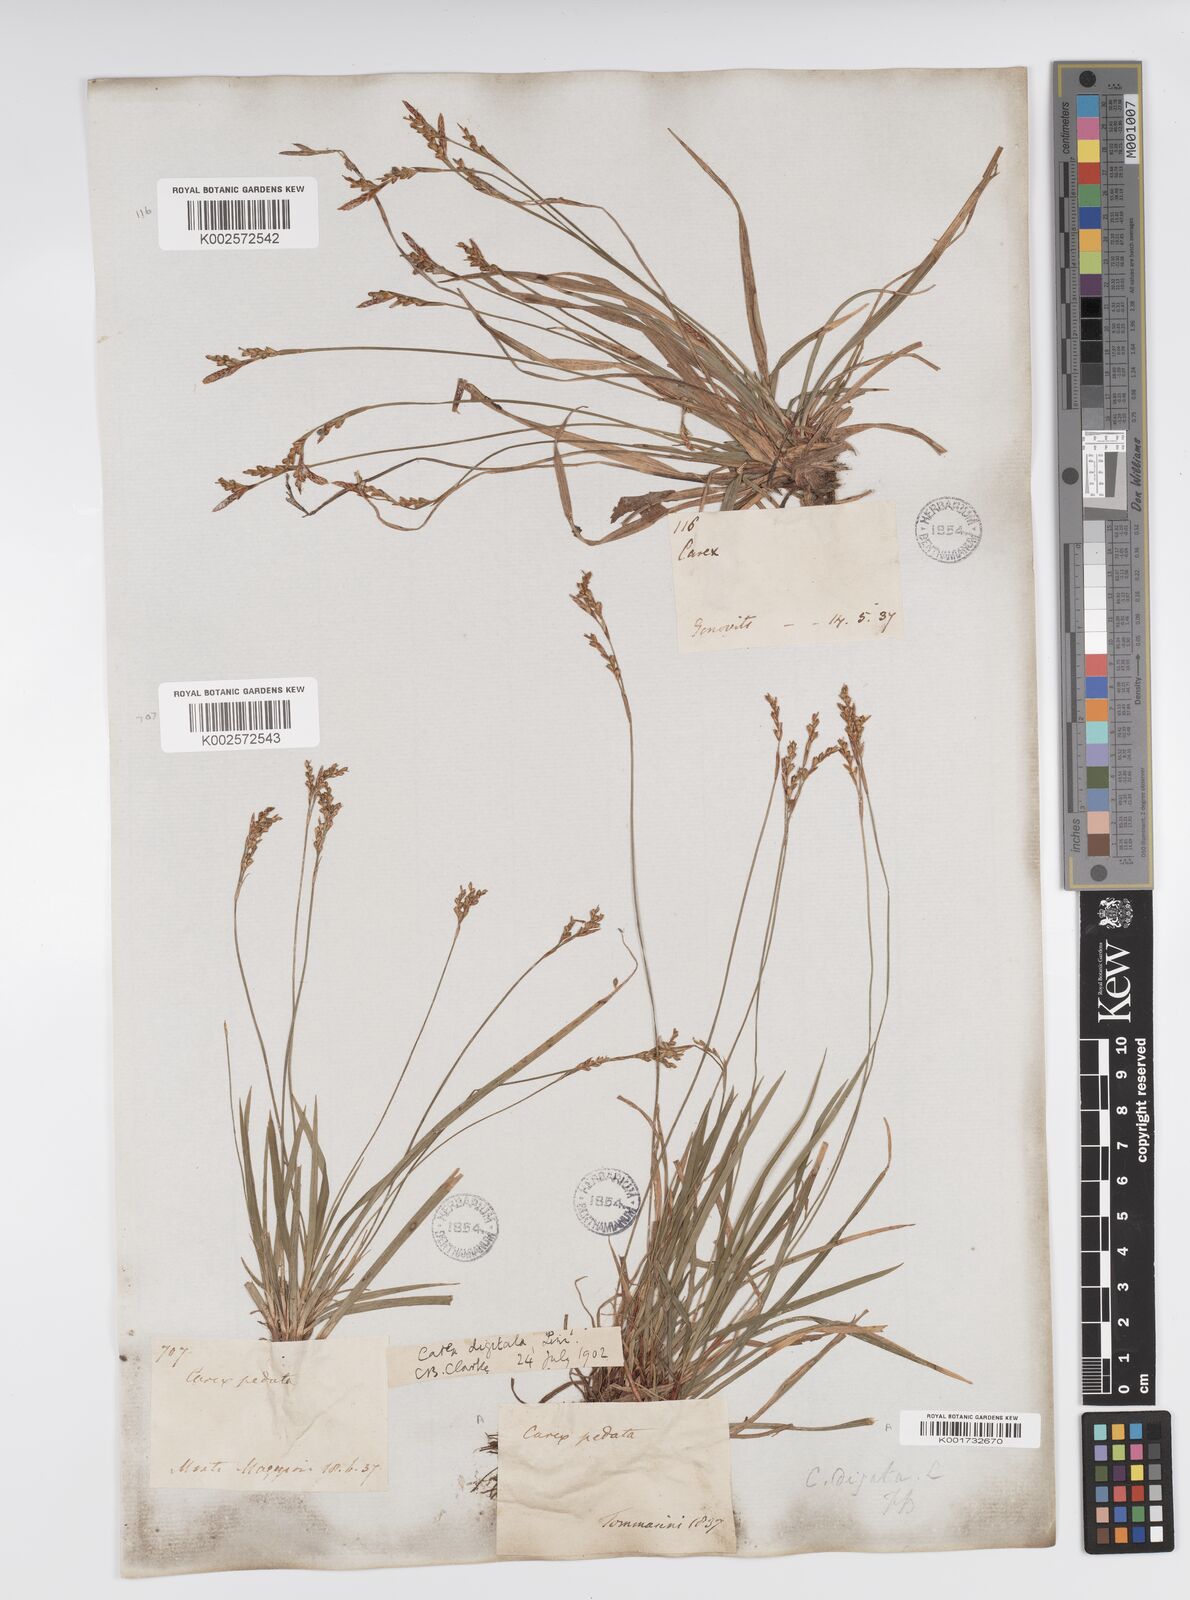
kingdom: Plantae
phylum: Tracheophyta
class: Liliopsida
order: Poales
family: Cyperaceae
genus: Carex
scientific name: Carex digitata
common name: Fingered sedge
